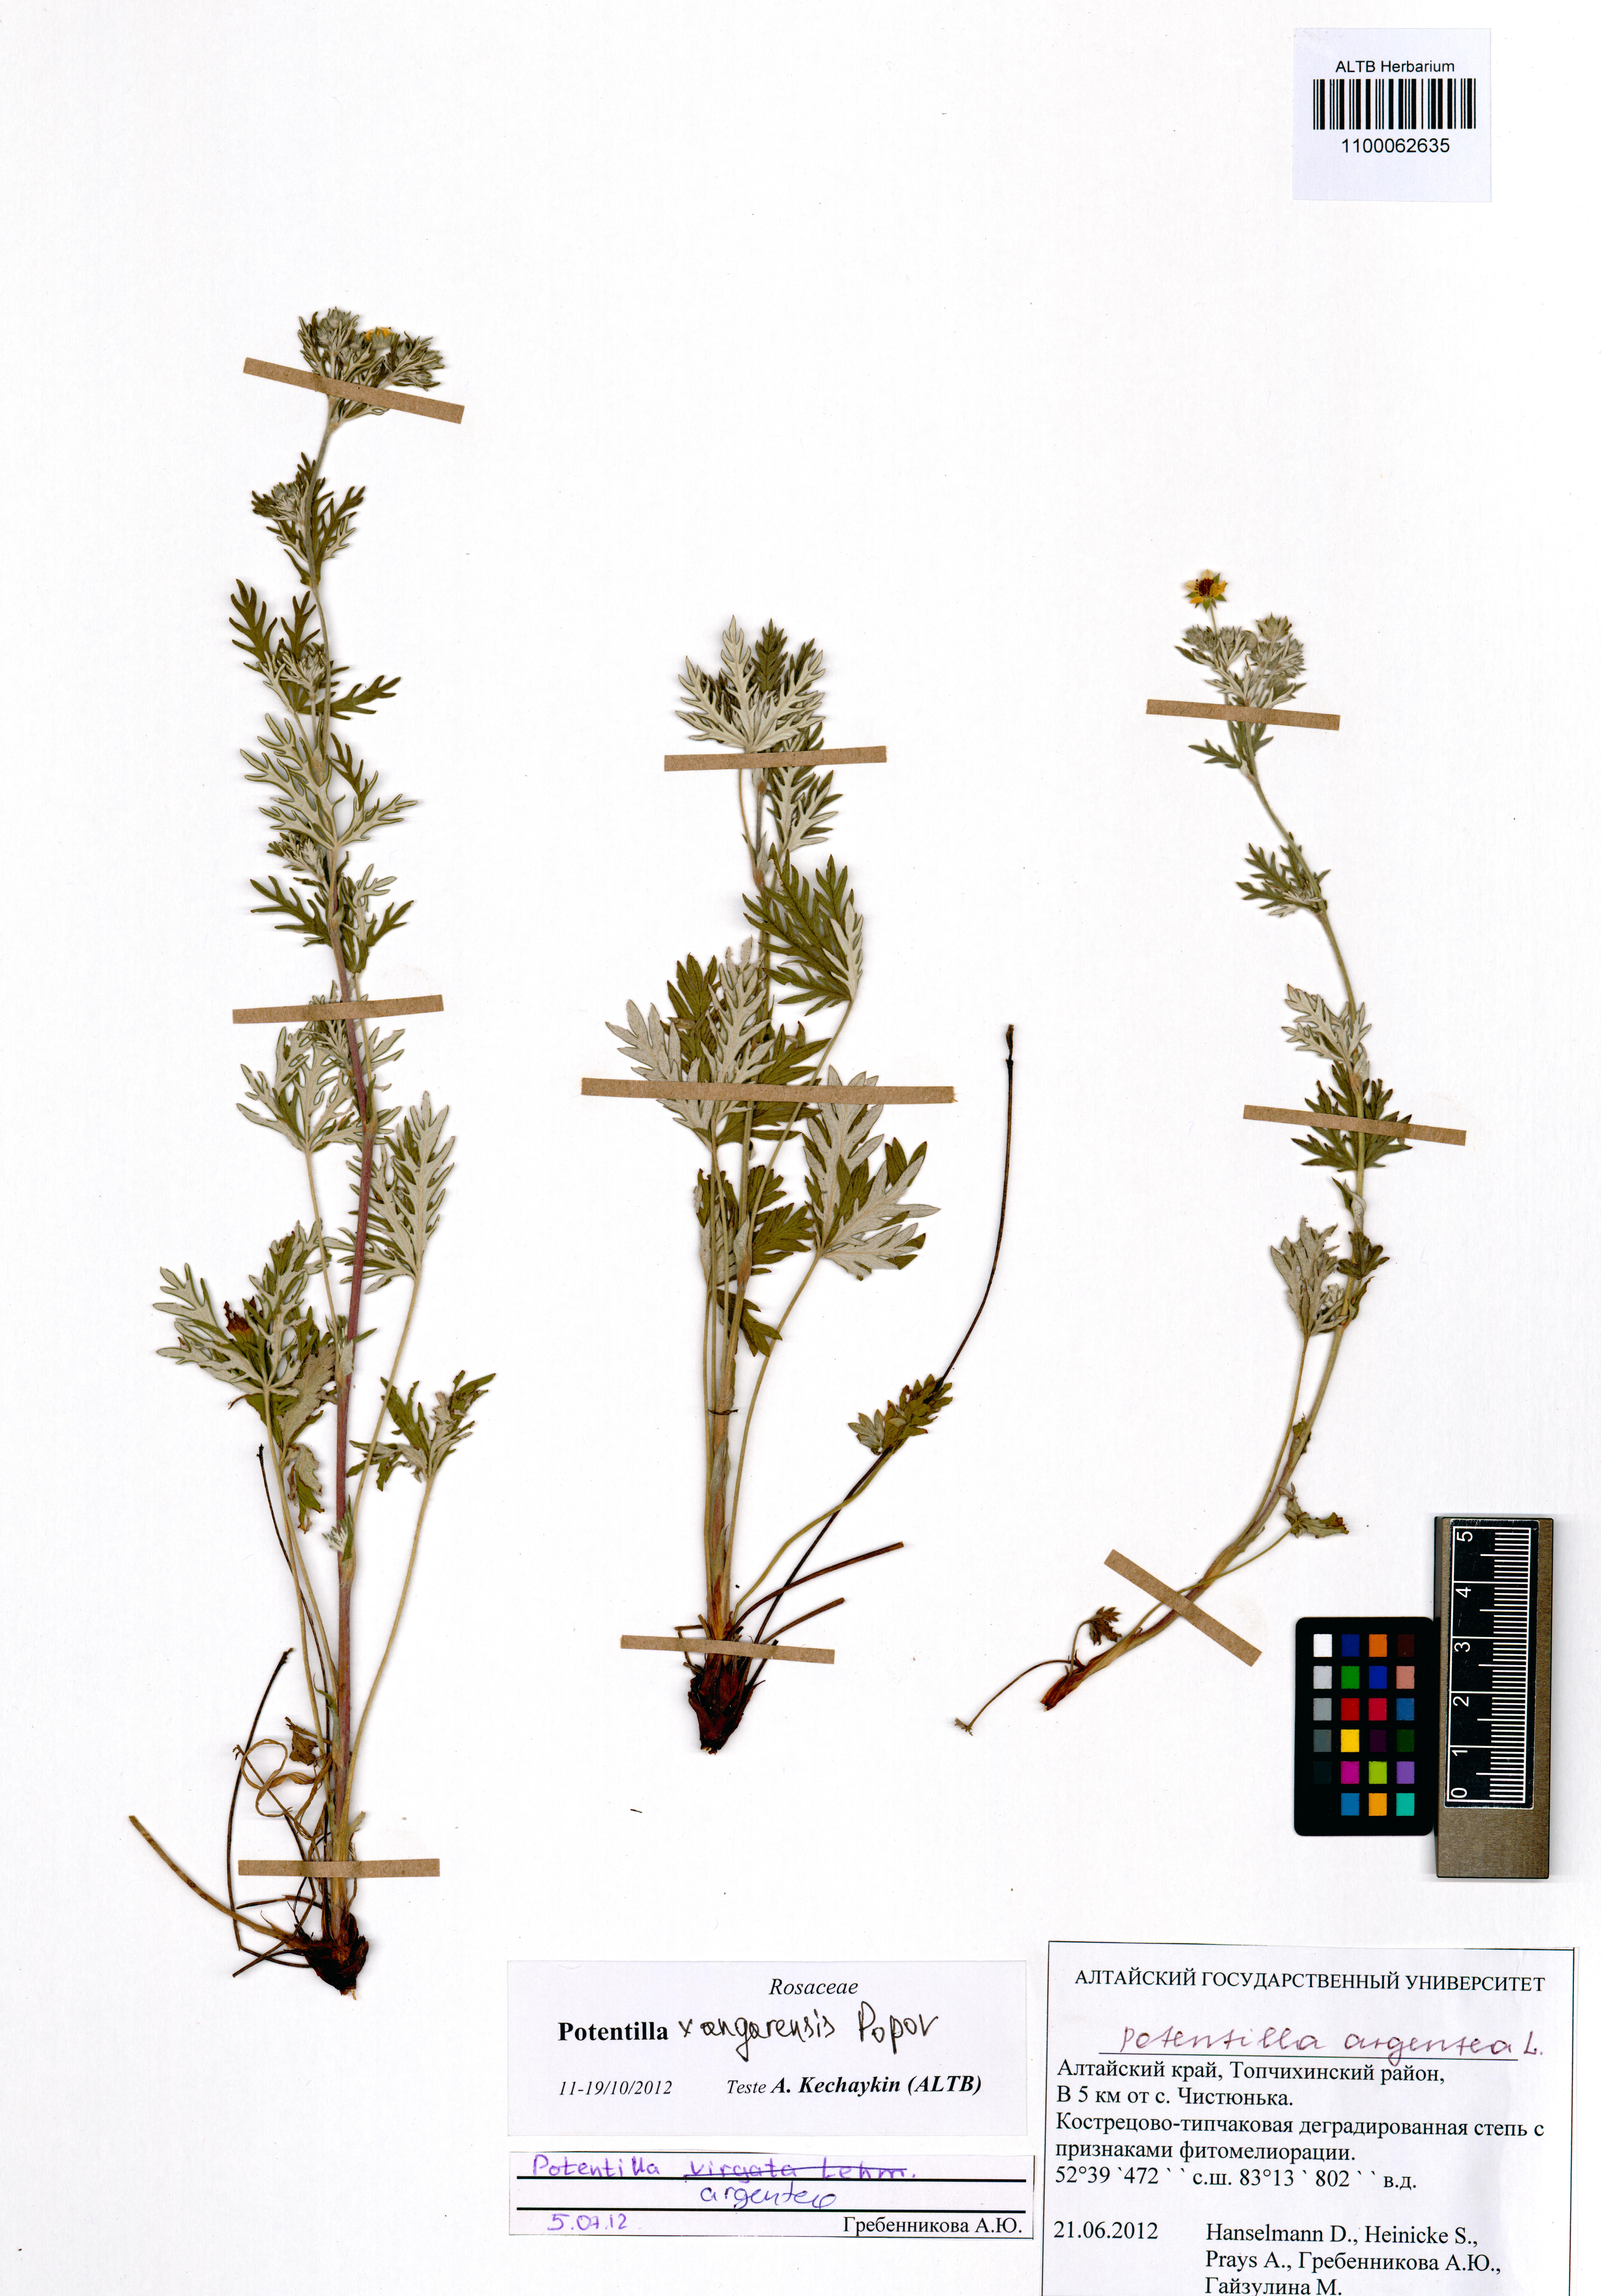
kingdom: Plantae
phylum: Tracheophyta
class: Magnoliopsida
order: Rosales
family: Rosaceae
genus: Potentilla
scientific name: Potentilla angarensis
